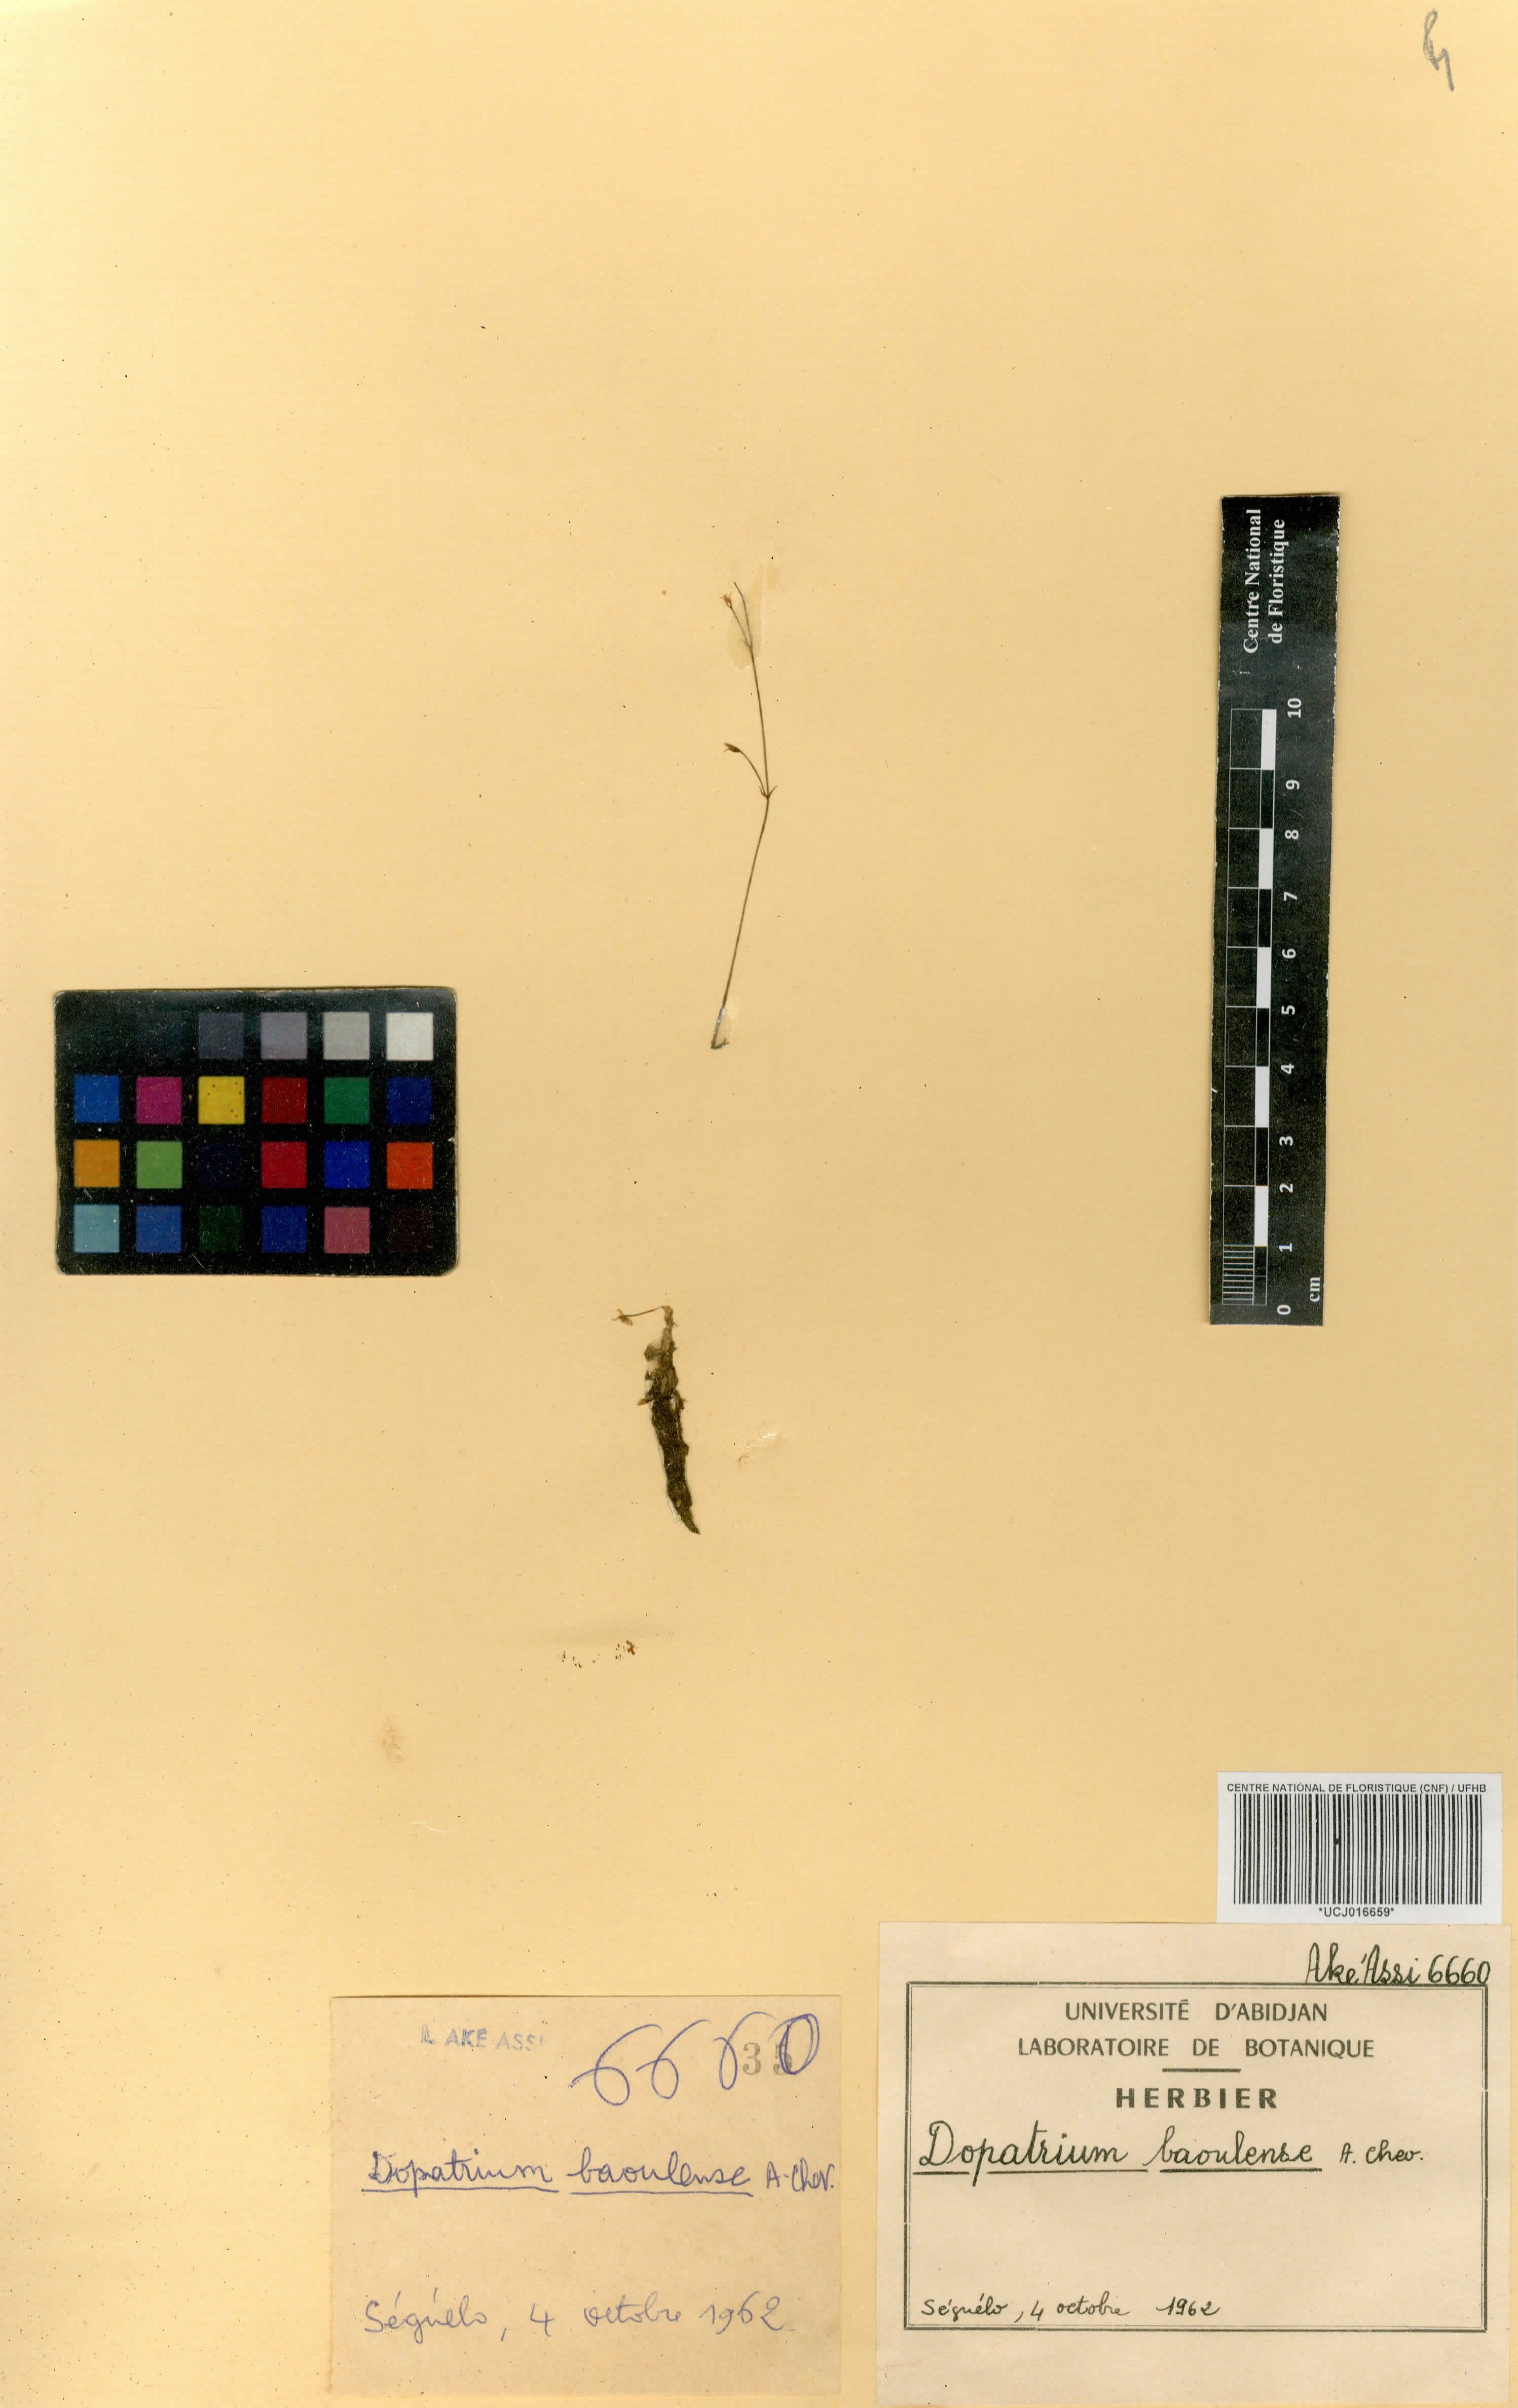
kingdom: Plantae
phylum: Tracheophyta
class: Magnoliopsida
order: Lamiales
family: Plantaginaceae
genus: Dopatrium
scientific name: Dopatrium baoulense
